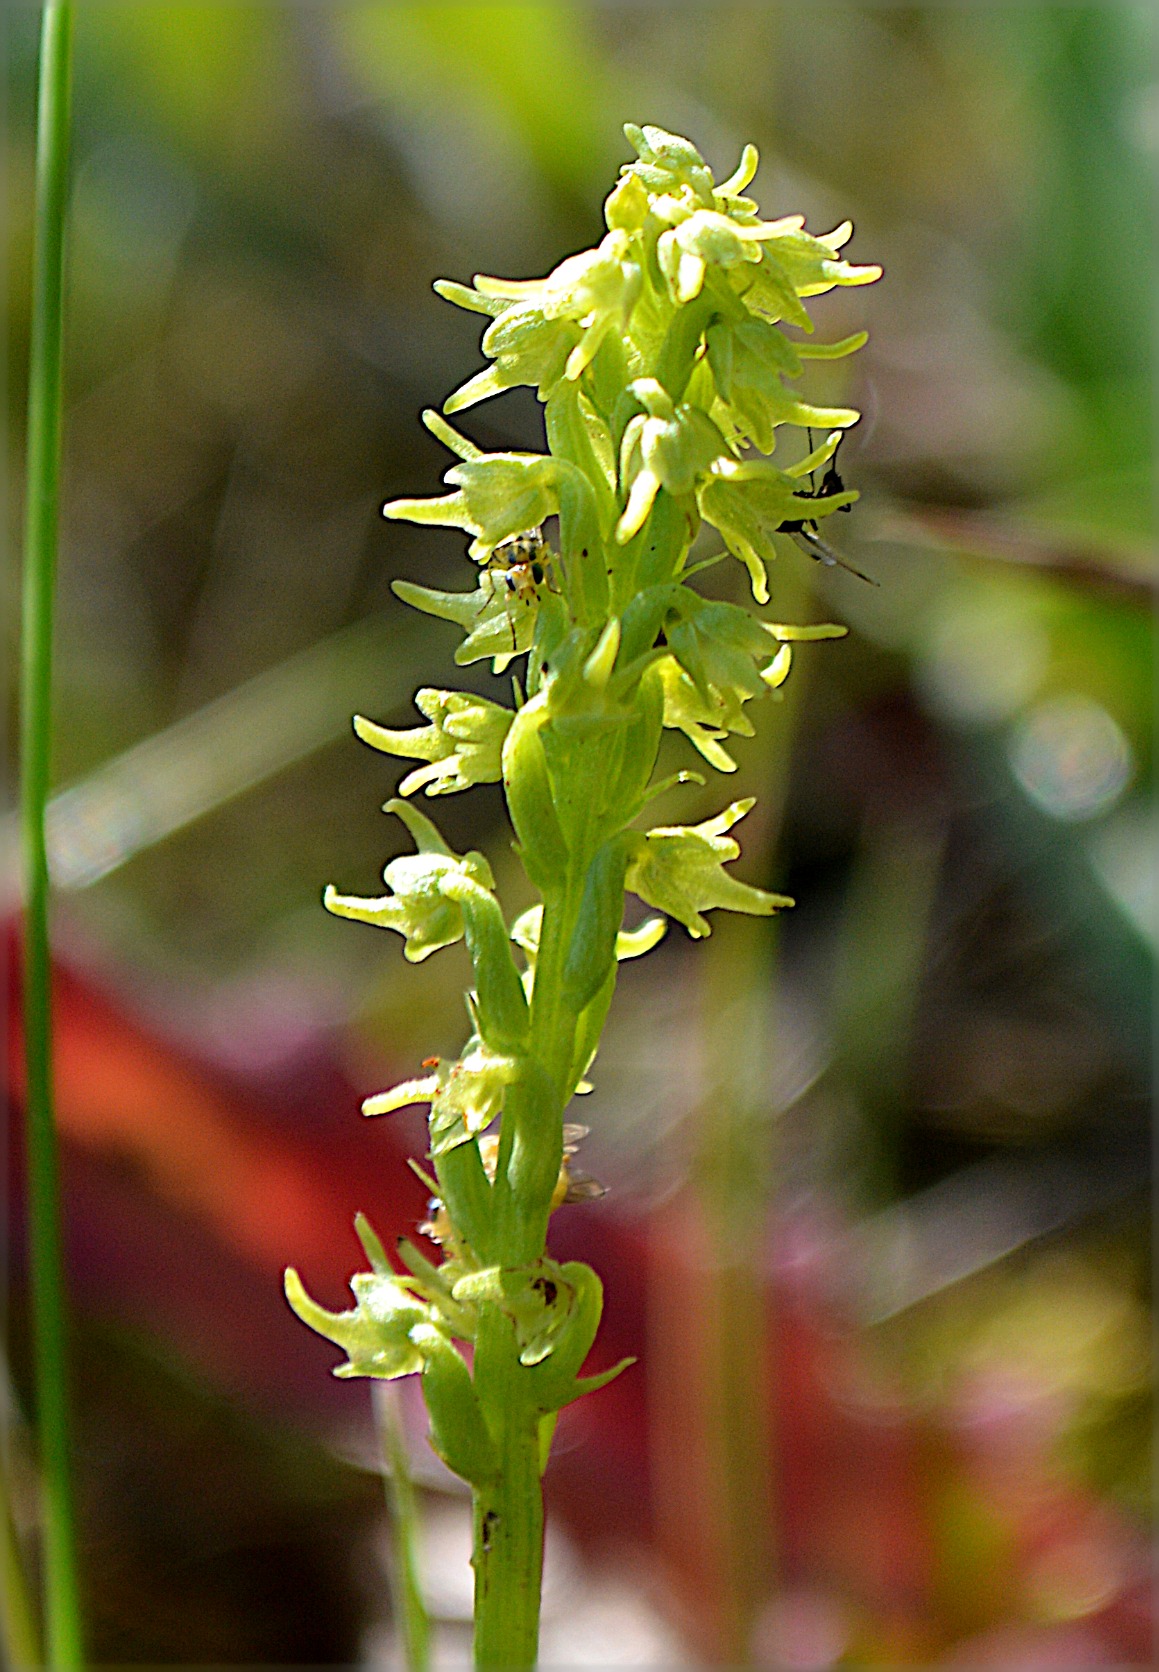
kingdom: Plantae
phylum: Tracheophyta
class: Liliopsida
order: Asparagales
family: Orchidaceae
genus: Herminium
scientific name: Herminium monorchis
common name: Pukkellæbe
